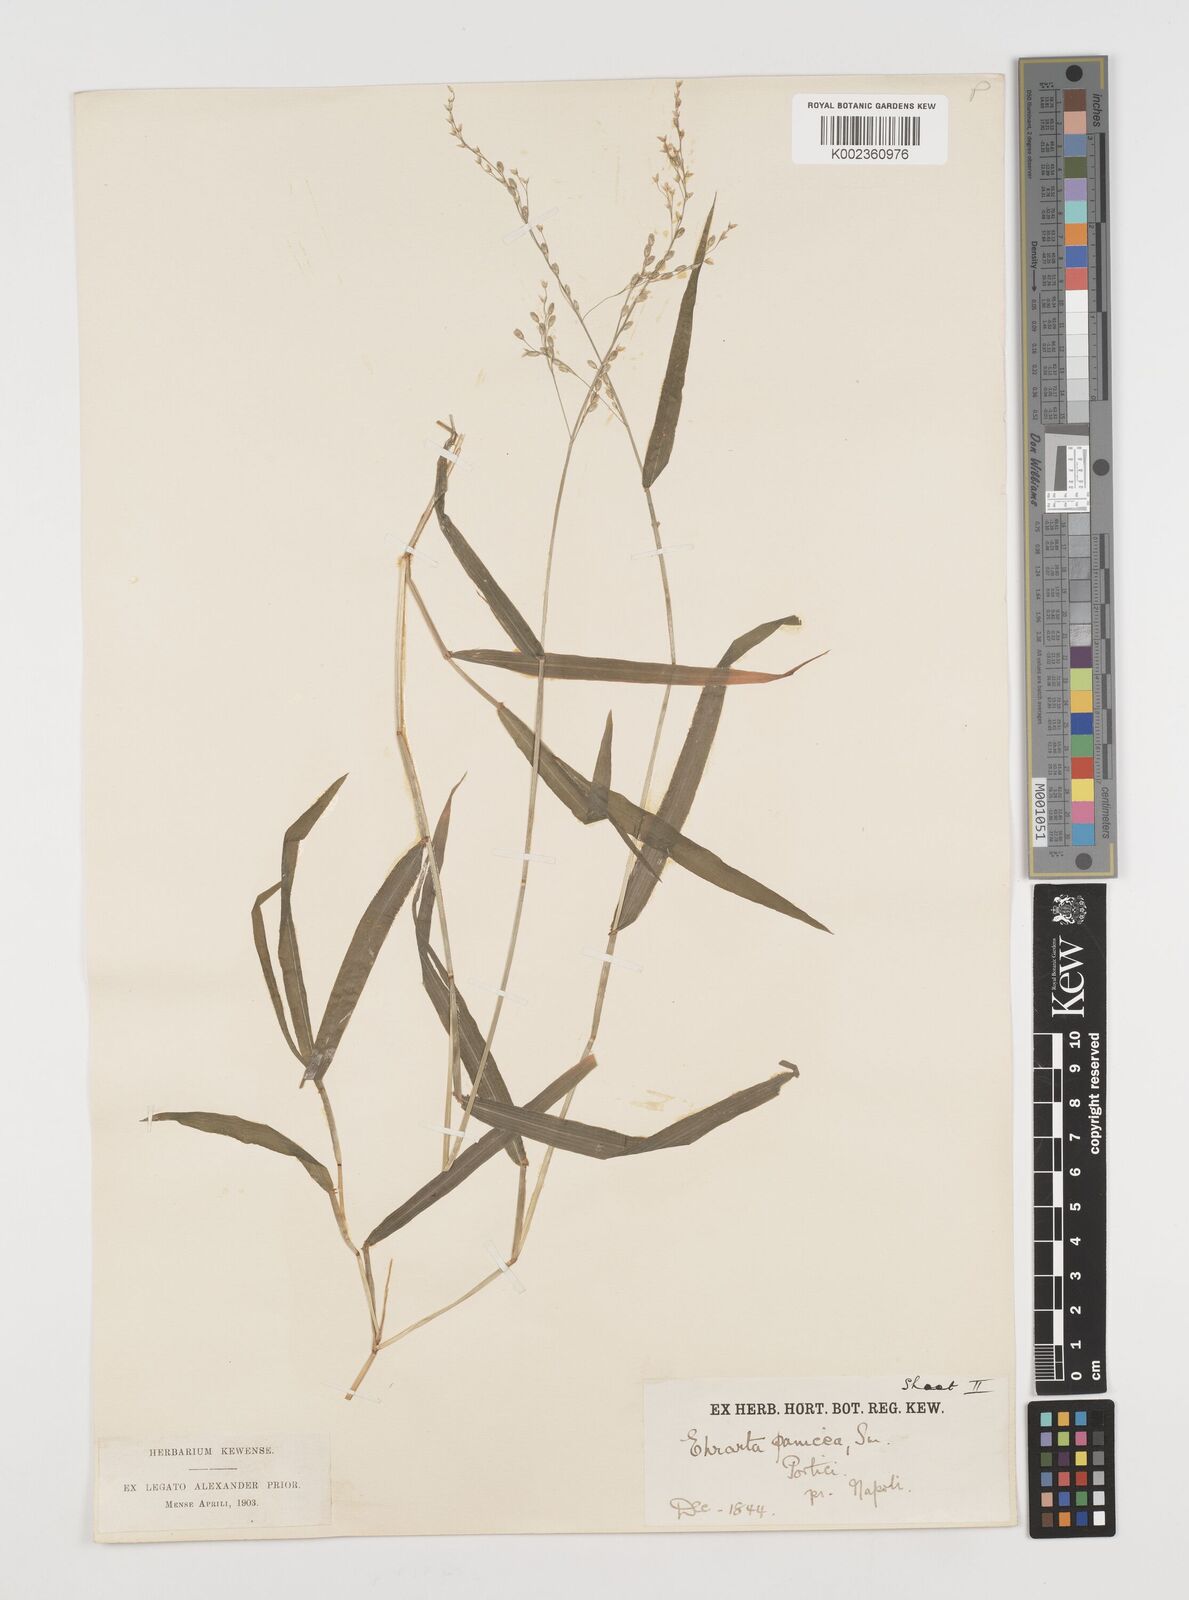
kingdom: Plantae
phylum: Tracheophyta
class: Liliopsida
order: Poales
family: Poaceae
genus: Ehrharta
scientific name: Ehrharta erecta
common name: Panic veldtgrass
